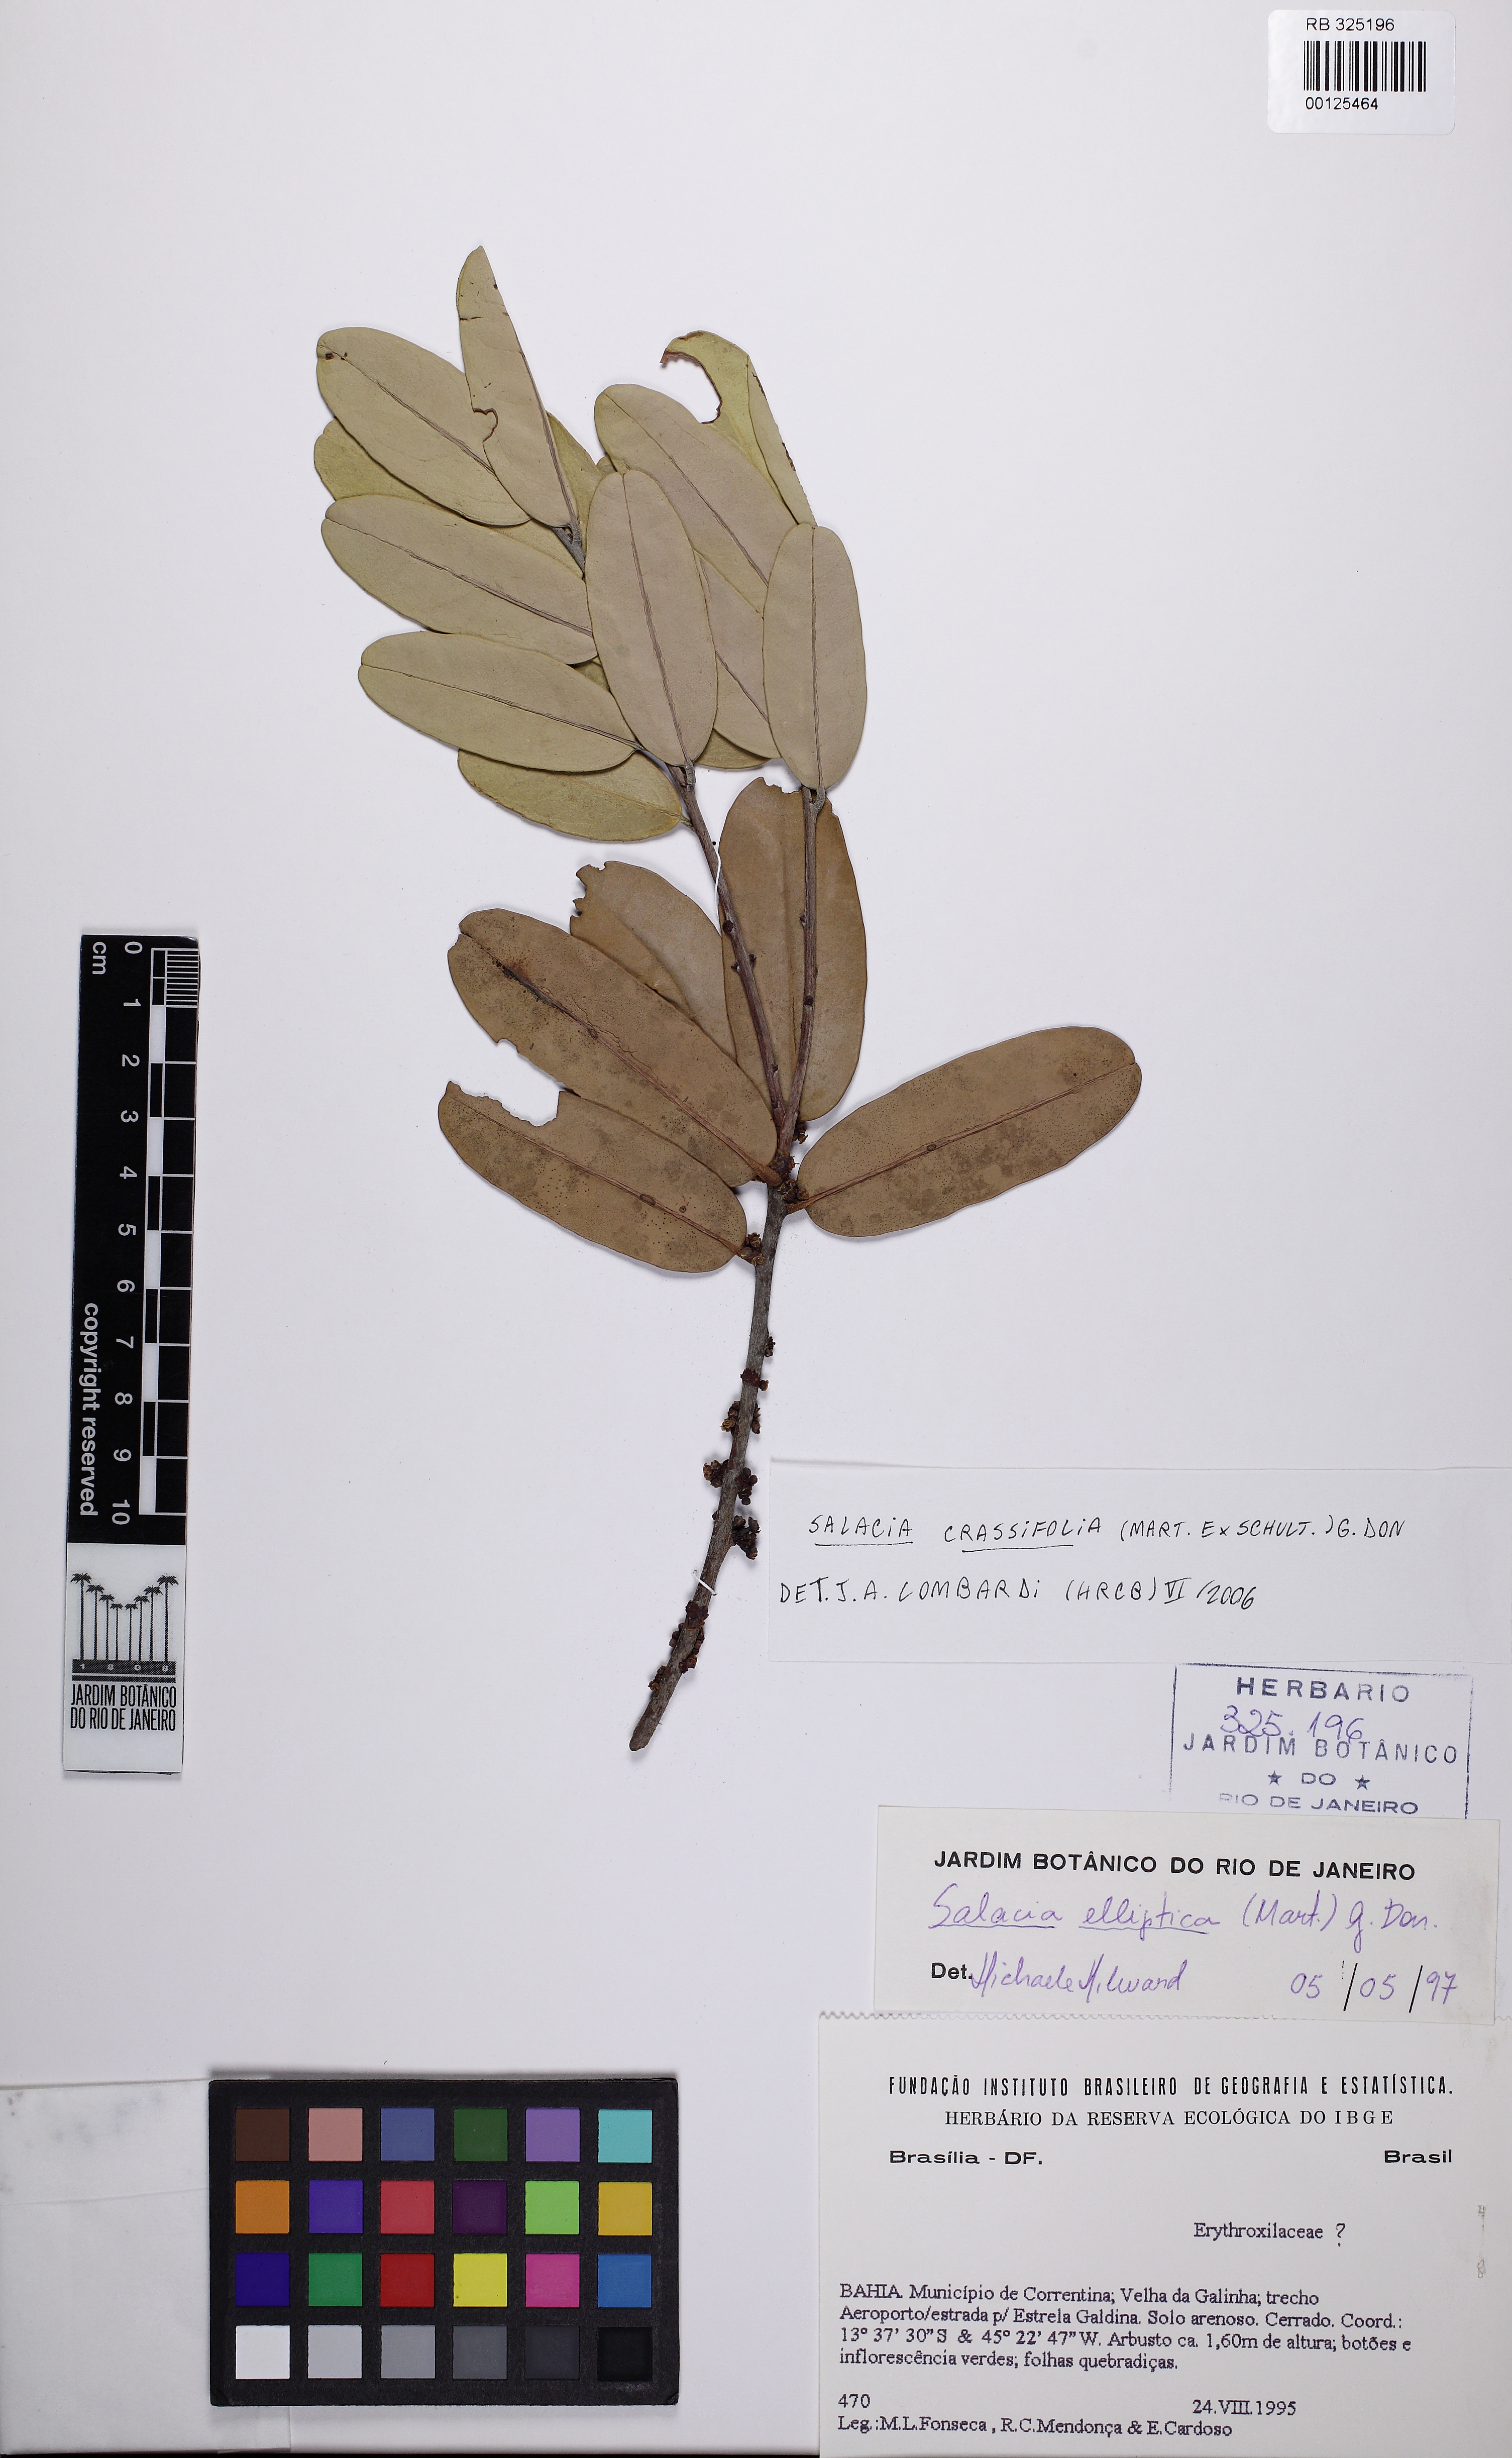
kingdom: Plantae
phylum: Tracheophyta
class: Magnoliopsida
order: Celastrales
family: Celastraceae
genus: Salacia
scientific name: Salacia grandifolia
